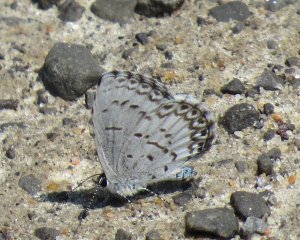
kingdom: Animalia
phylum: Arthropoda
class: Insecta
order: Lepidoptera
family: Lycaenidae
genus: Cyaniris
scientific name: Cyaniris neglecta
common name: Summer Azure
